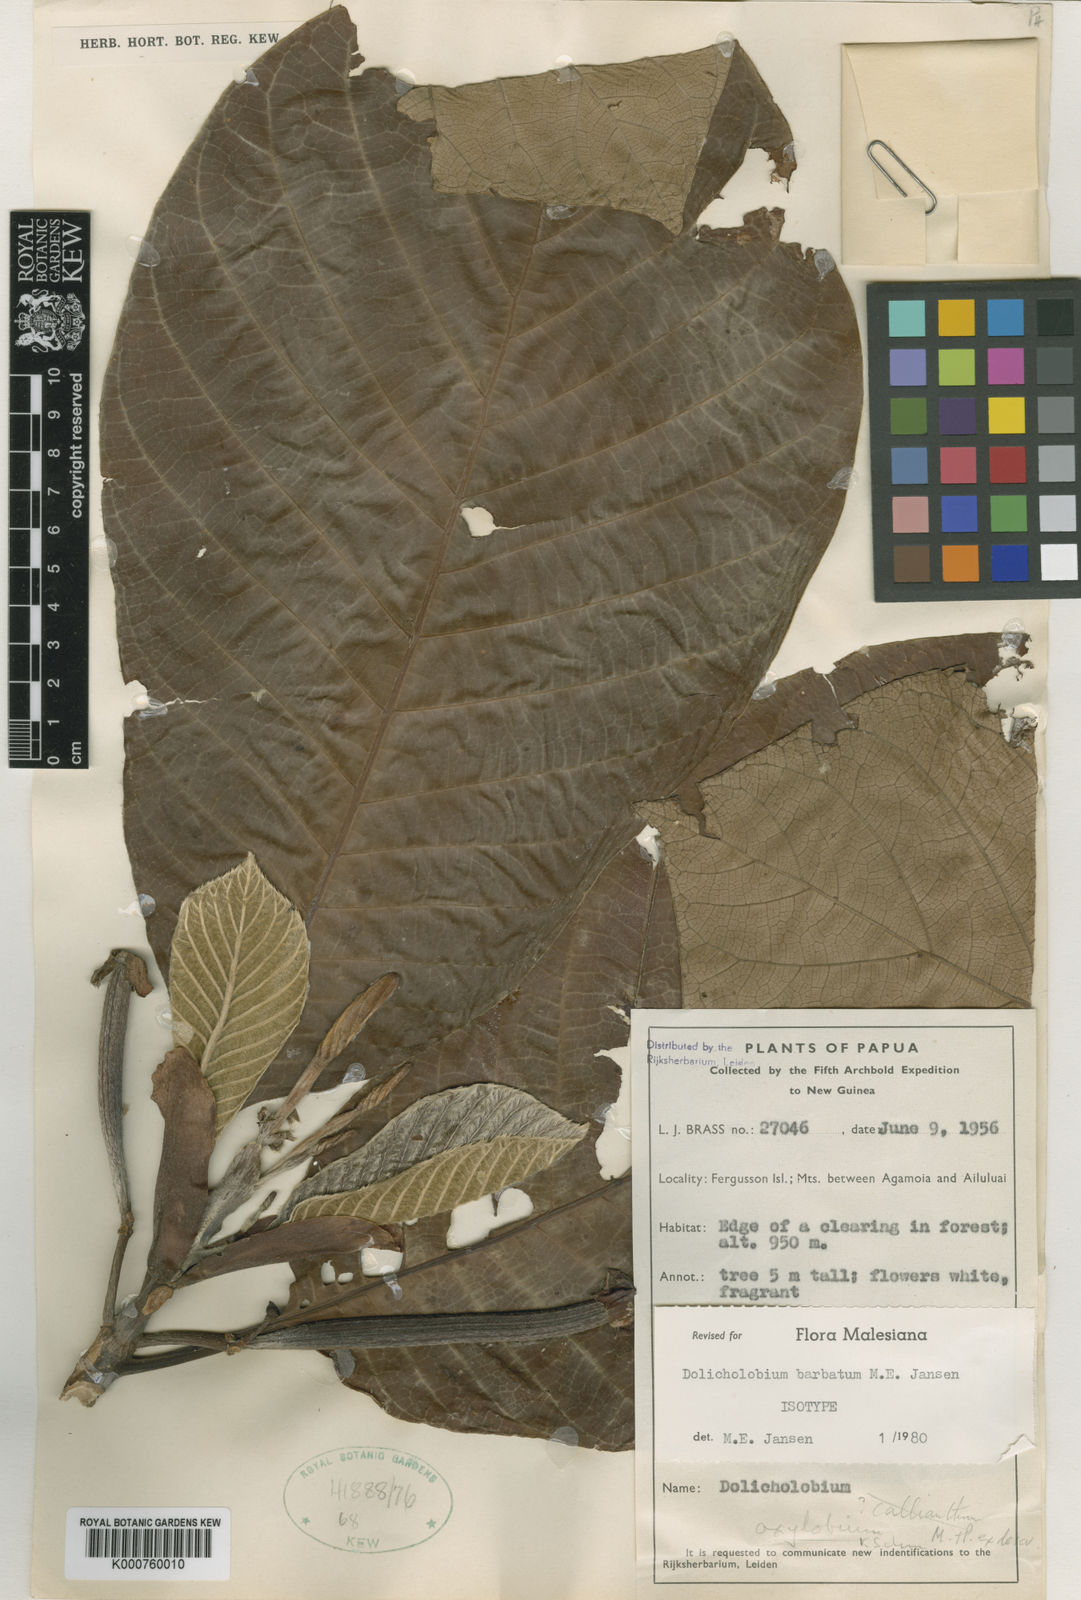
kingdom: Plantae
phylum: Tracheophyta
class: Magnoliopsida
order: Gentianales
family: Rubiaceae
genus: Dolicholobium
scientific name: Dolicholobium barbatum
